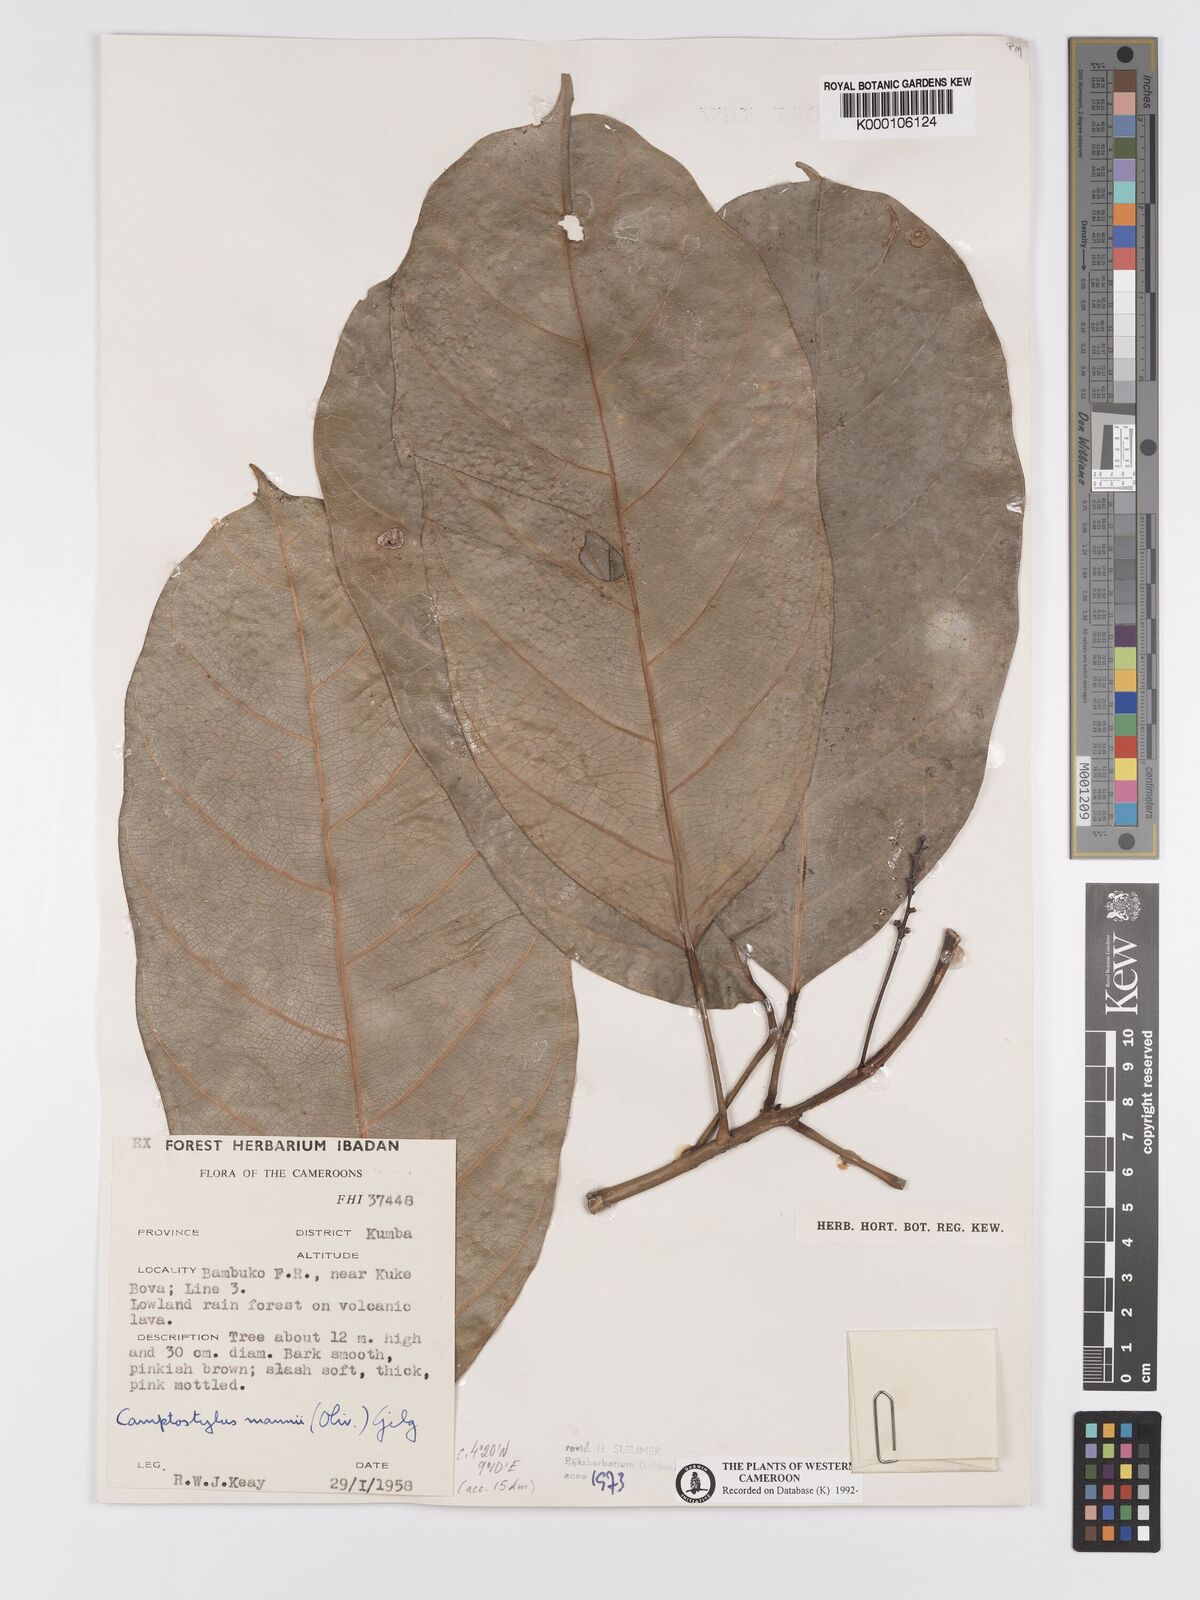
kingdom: Plantae
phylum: Tracheophyta
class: Magnoliopsida
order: Malpighiales
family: Achariaceae
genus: Camptostylus
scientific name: Camptostylus mannii
